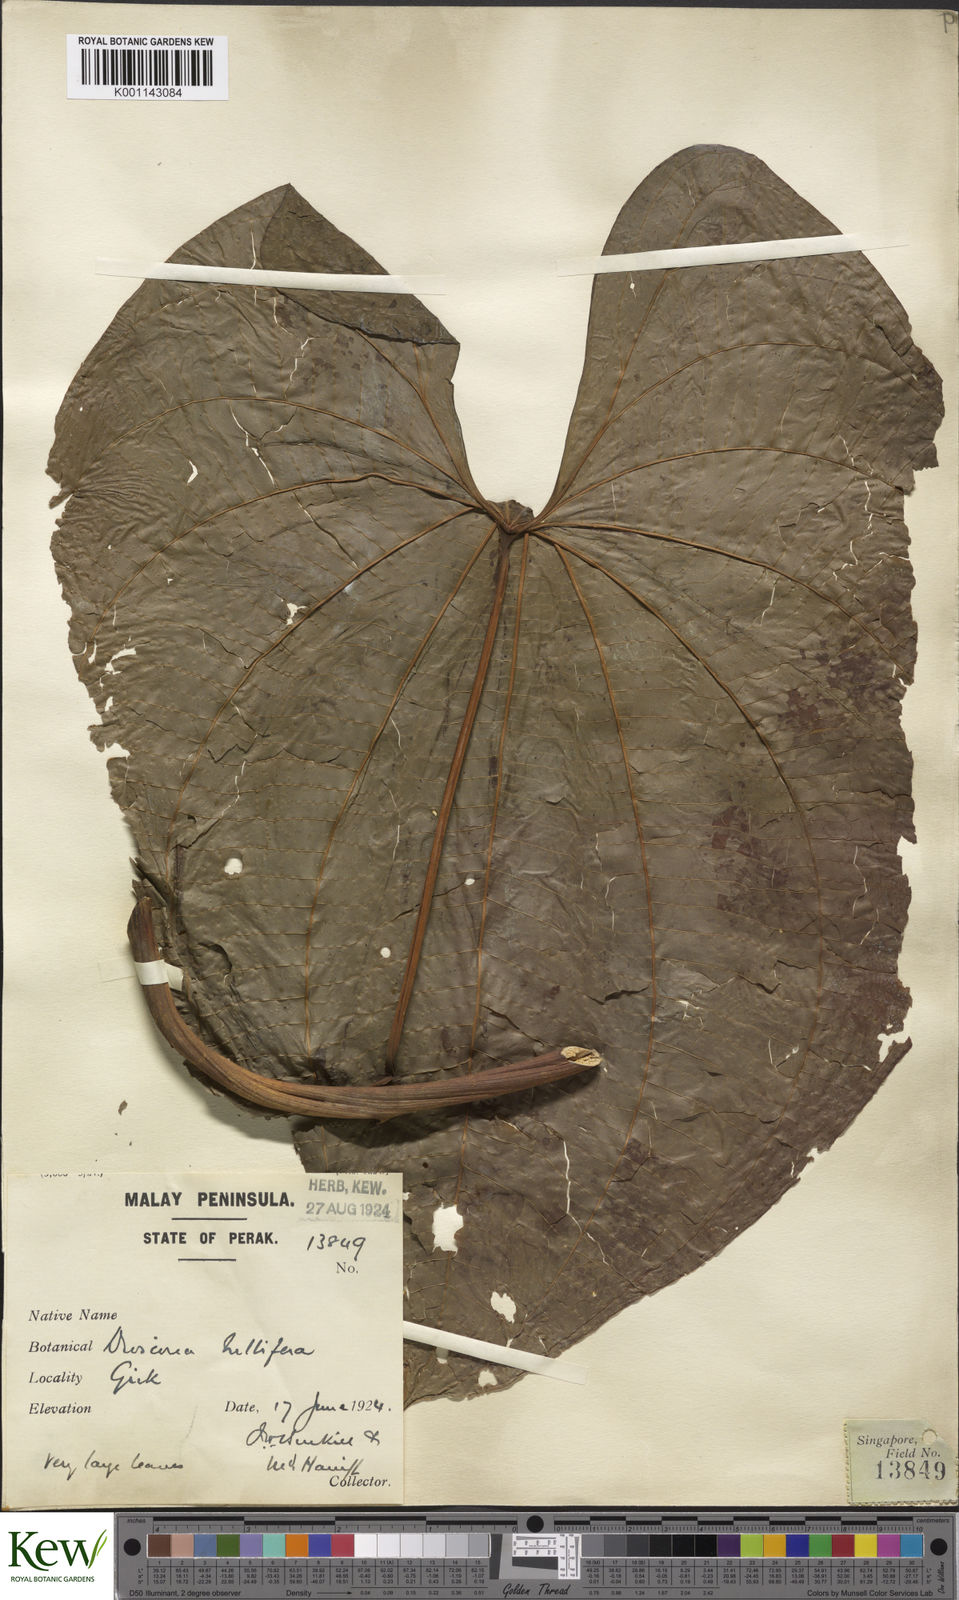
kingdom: Plantae
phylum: Tracheophyta
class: Liliopsida
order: Dioscoreales
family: Dioscoreaceae
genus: Dioscorea
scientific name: Dioscorea bulbifera
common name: Air yam
